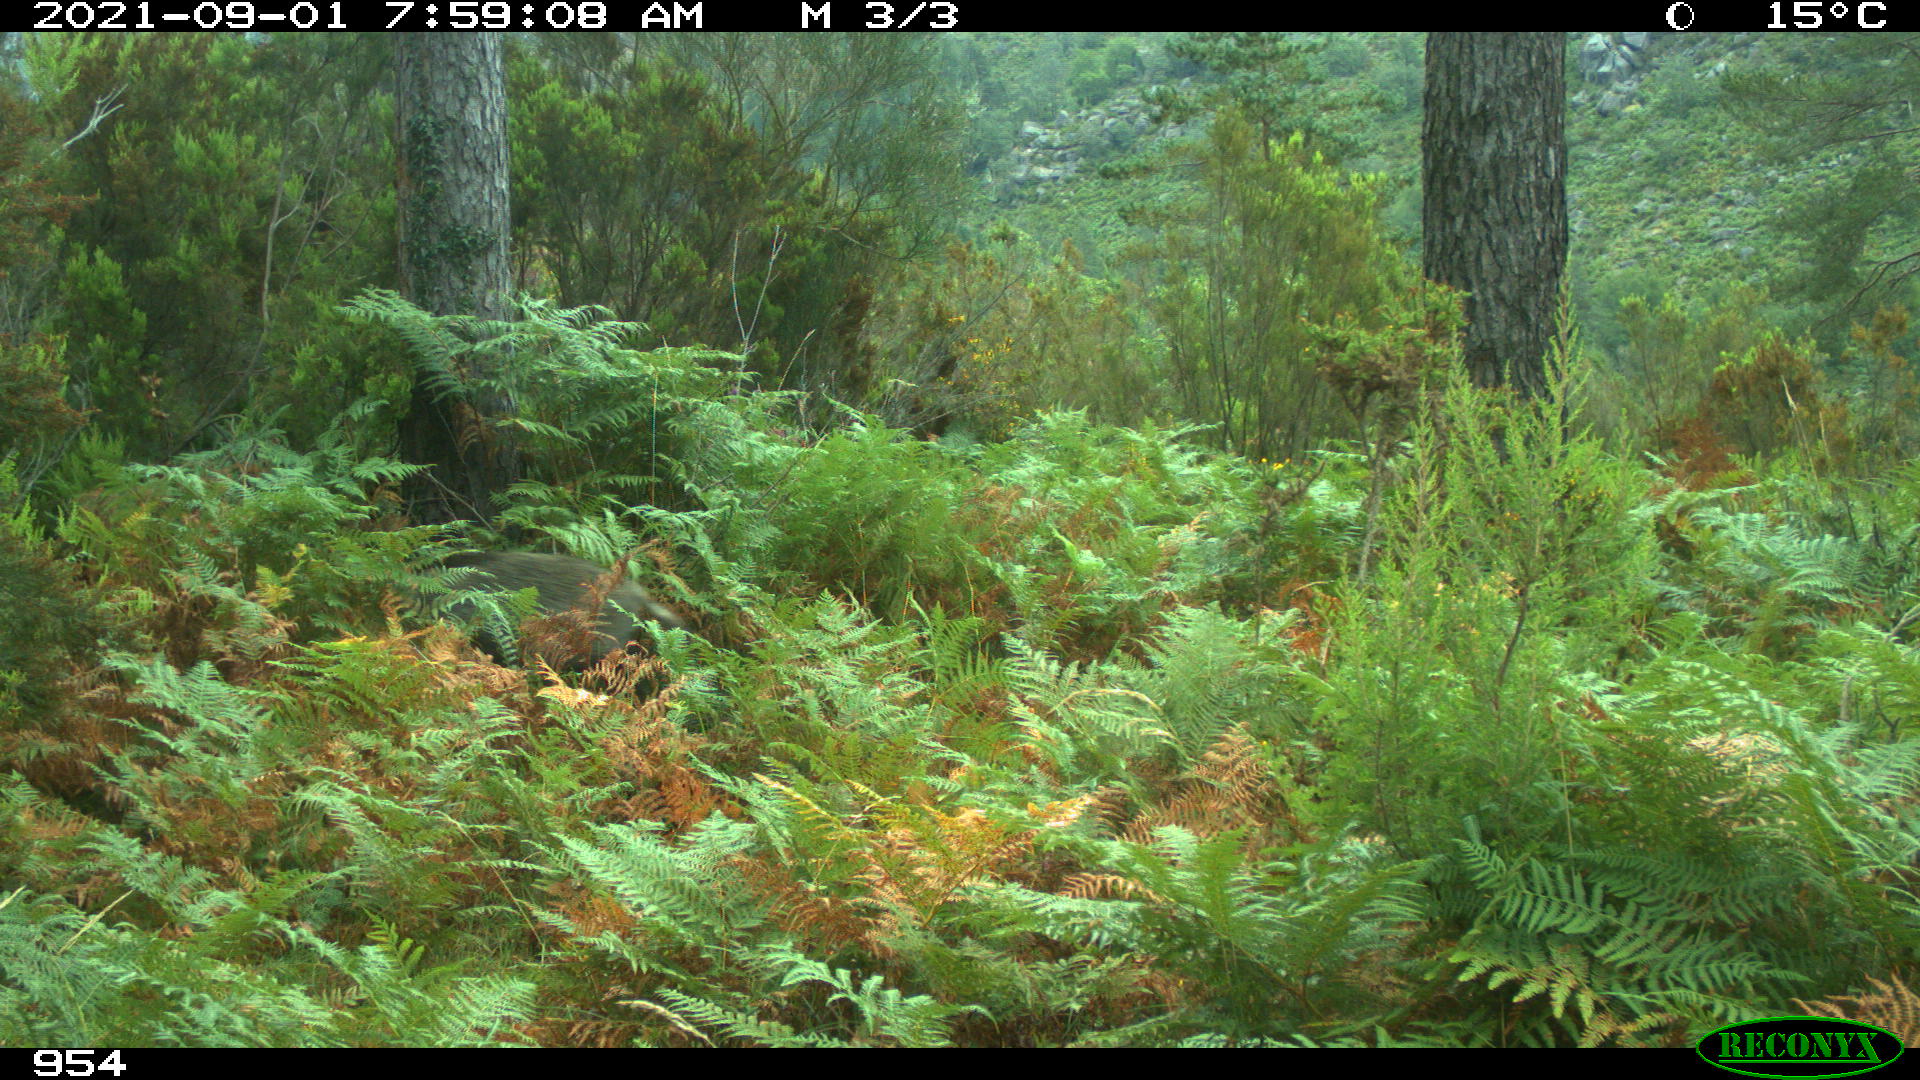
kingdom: Animalia
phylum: Chordata
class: Mammalia
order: Artiodactyla
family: Suidae
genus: Sus
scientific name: Sus scrofa
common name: Wild boar
